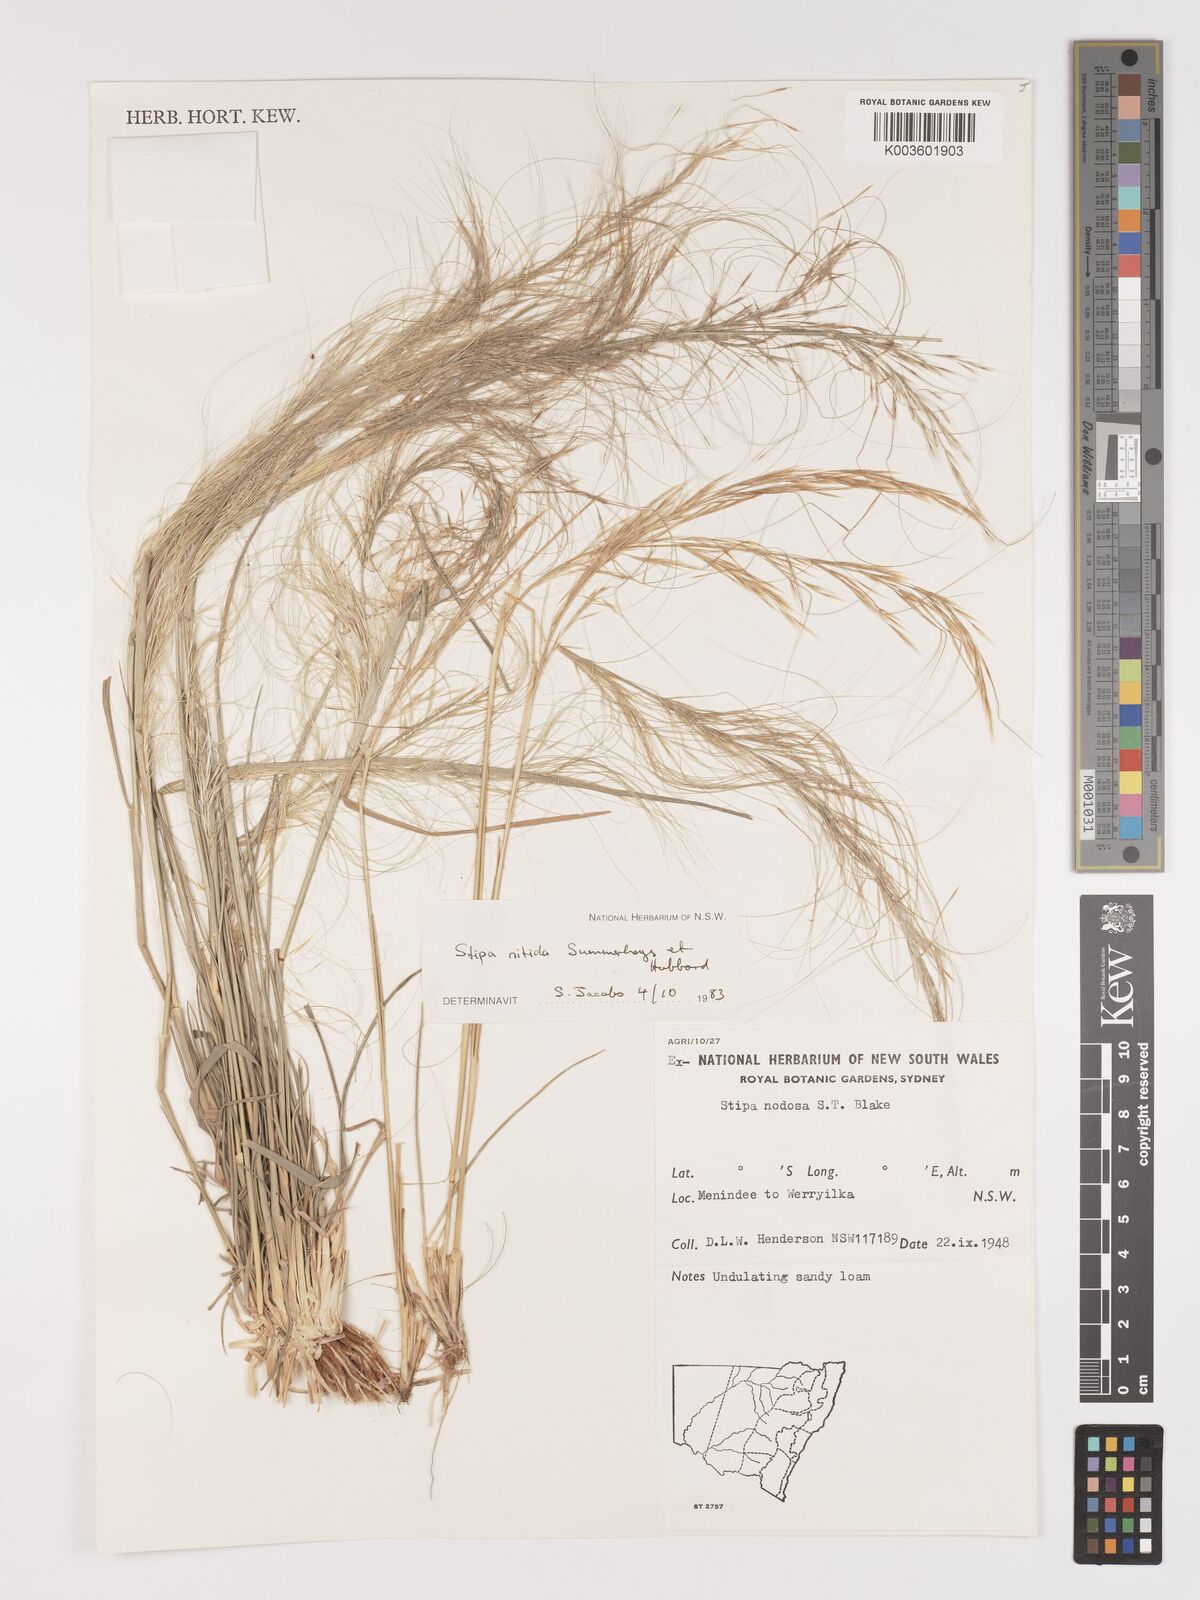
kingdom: Plantae
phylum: Tracheophyta
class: Liliopsida
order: Poales
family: Poaceae
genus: Austrostipa
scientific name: Austrostipa nitida
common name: Balcarra grass
